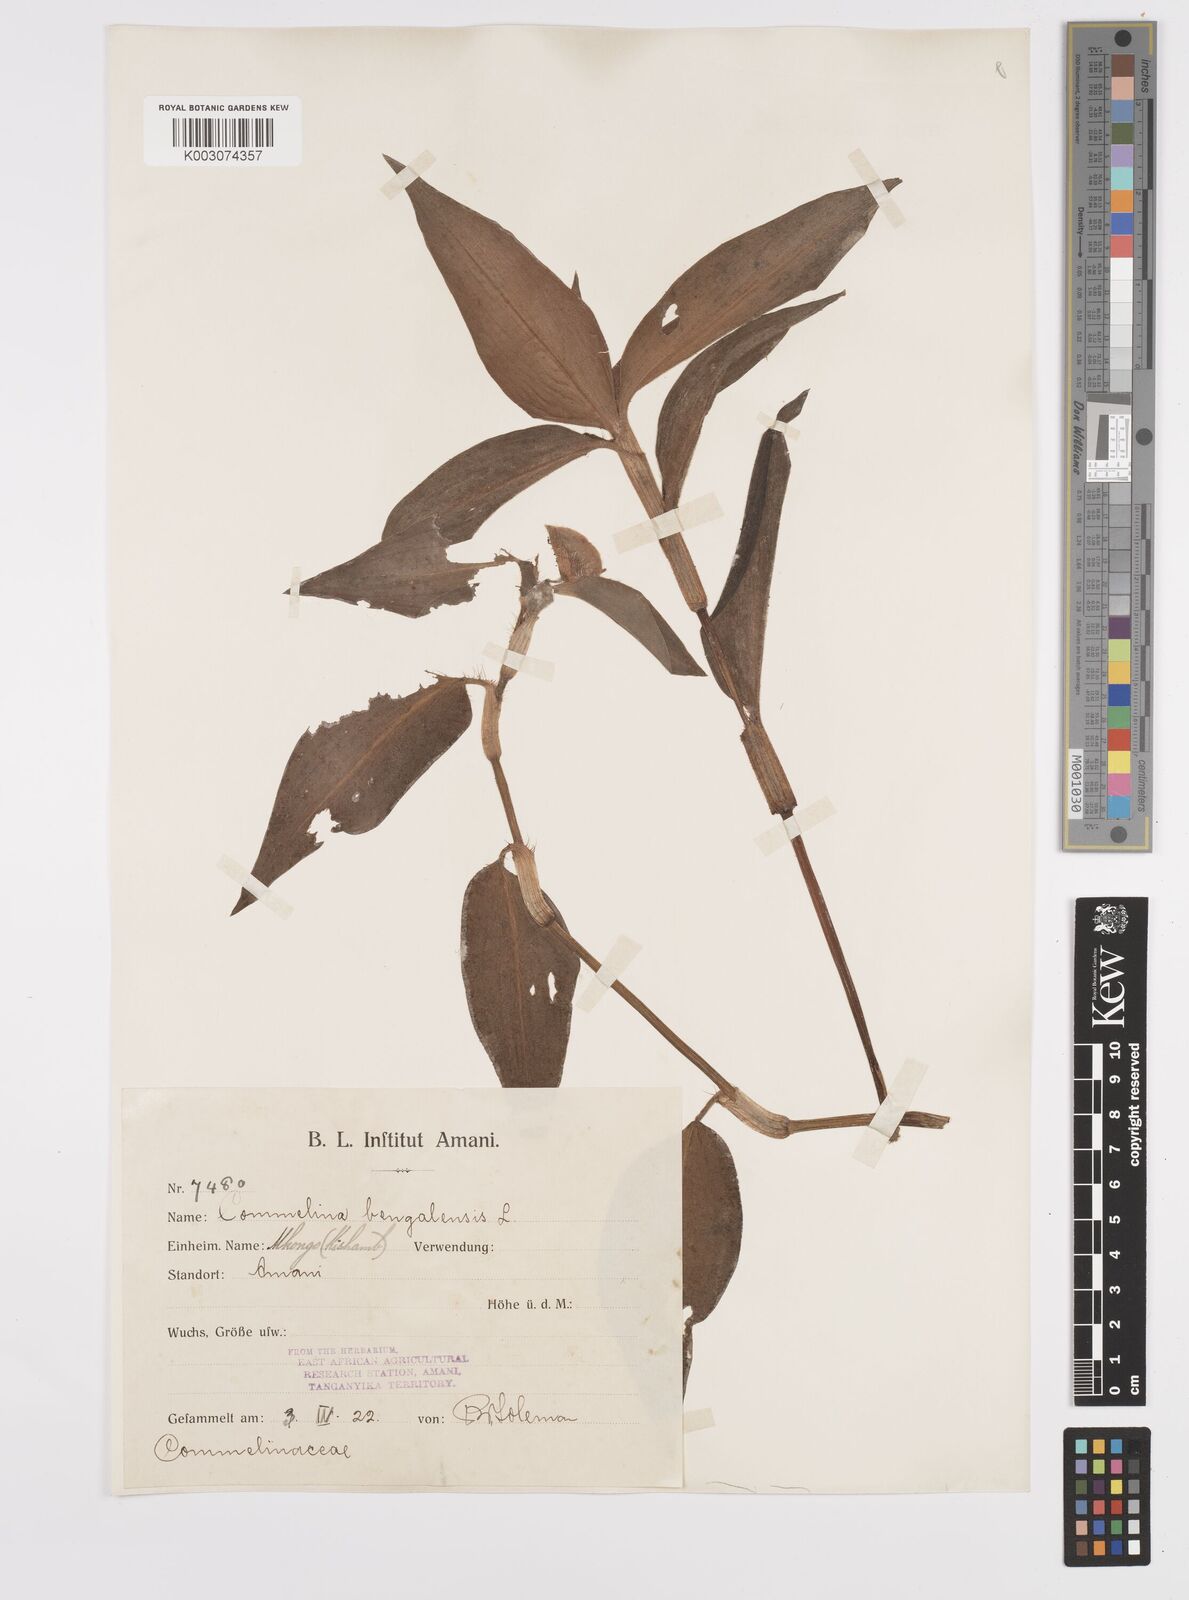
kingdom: Plantae
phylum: Tracheophyta
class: Liliopsida
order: Commelinales
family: Commelinaceae
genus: Commelina
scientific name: Commelina benghalensis
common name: Jio
